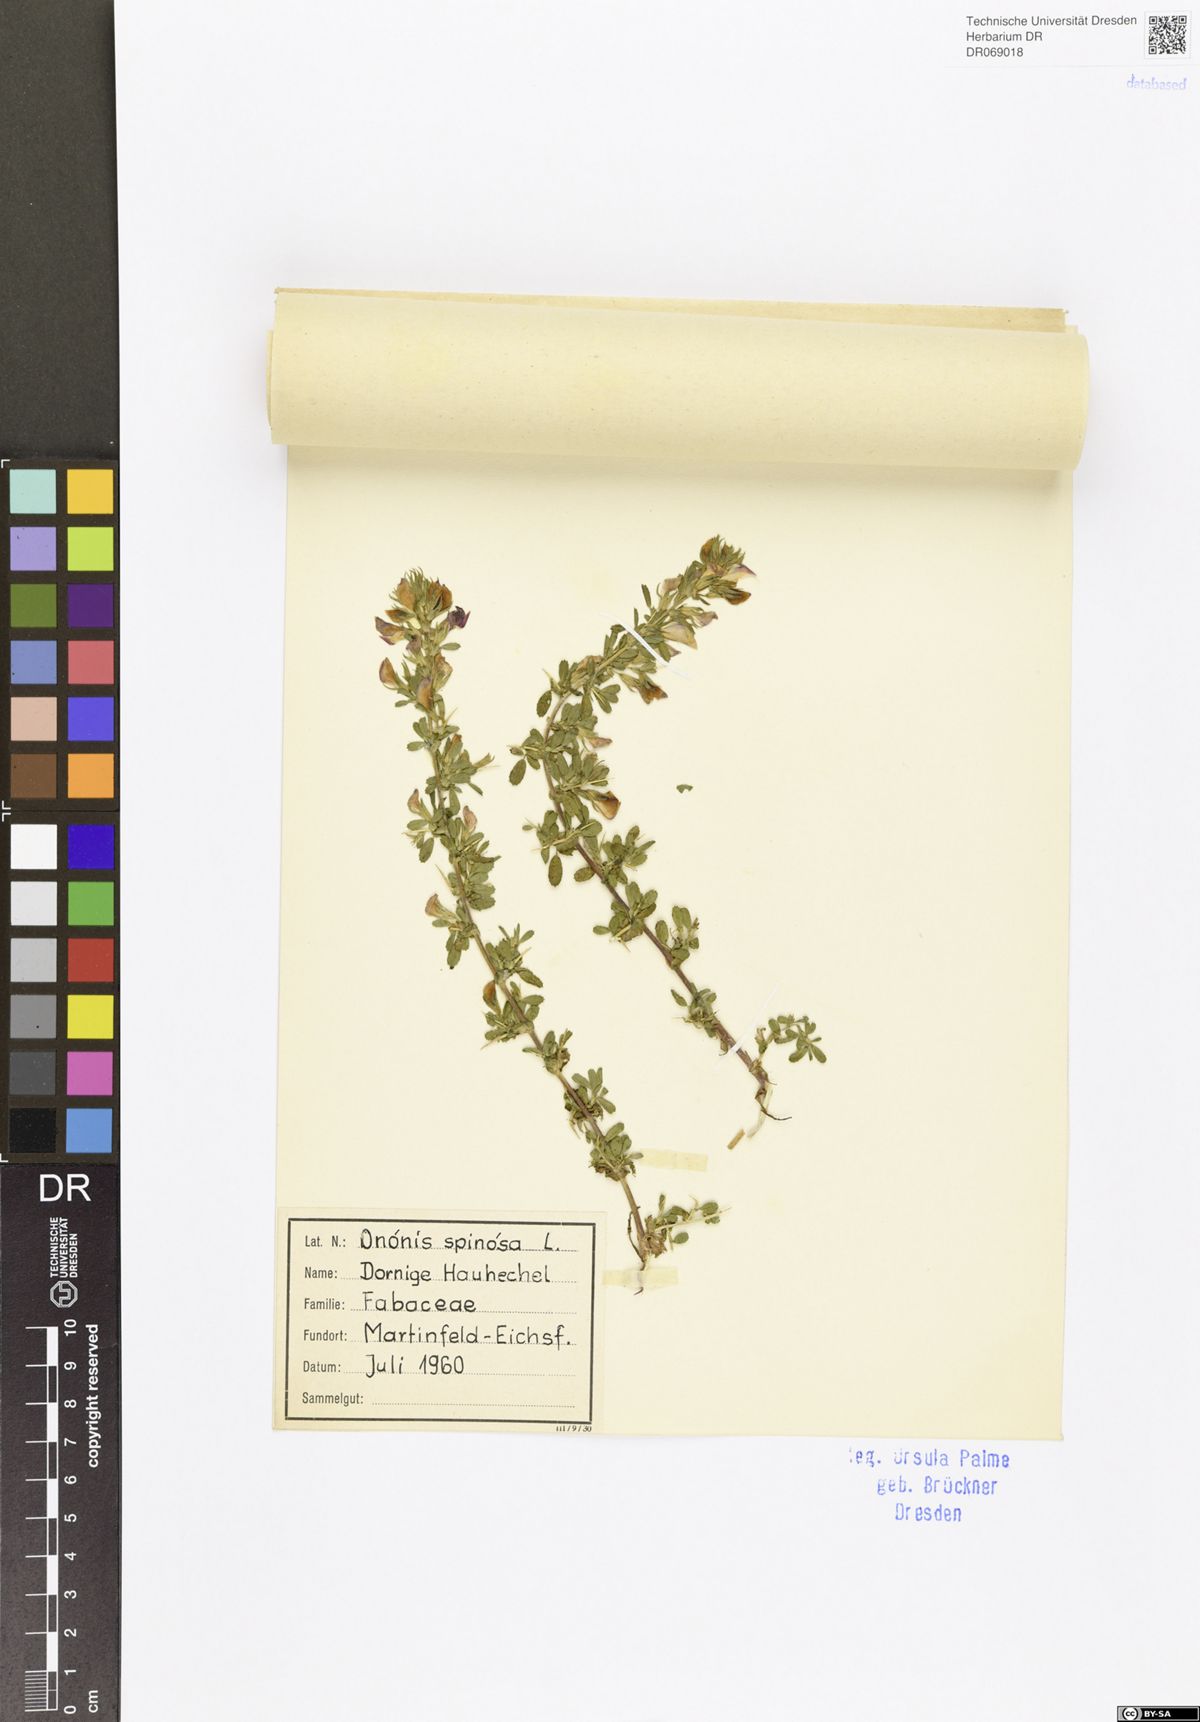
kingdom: Plantae
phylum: Tracheophyta
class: Magnoliopsida
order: Fabales
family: Fabaceae
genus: Ononis
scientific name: Ononis spinosa
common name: Spiny restharrow
